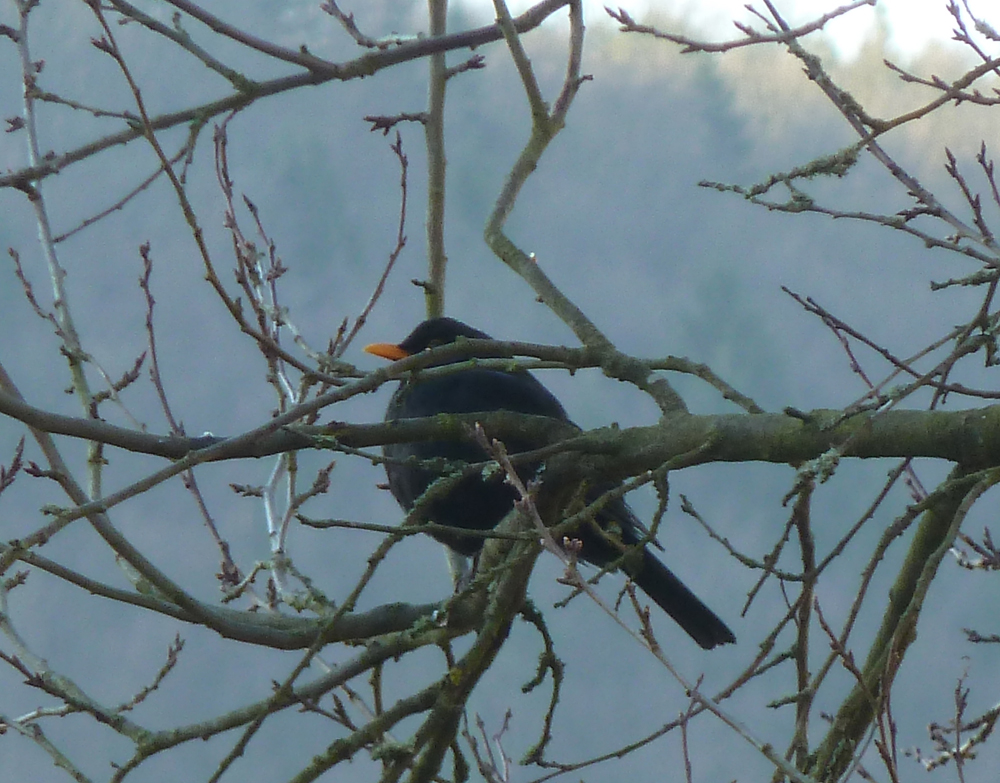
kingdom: Animalia
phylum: Chordata
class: Aves
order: Passeriformes
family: Turdidae
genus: Turdus
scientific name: Turdus merula
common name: Common blackbird
